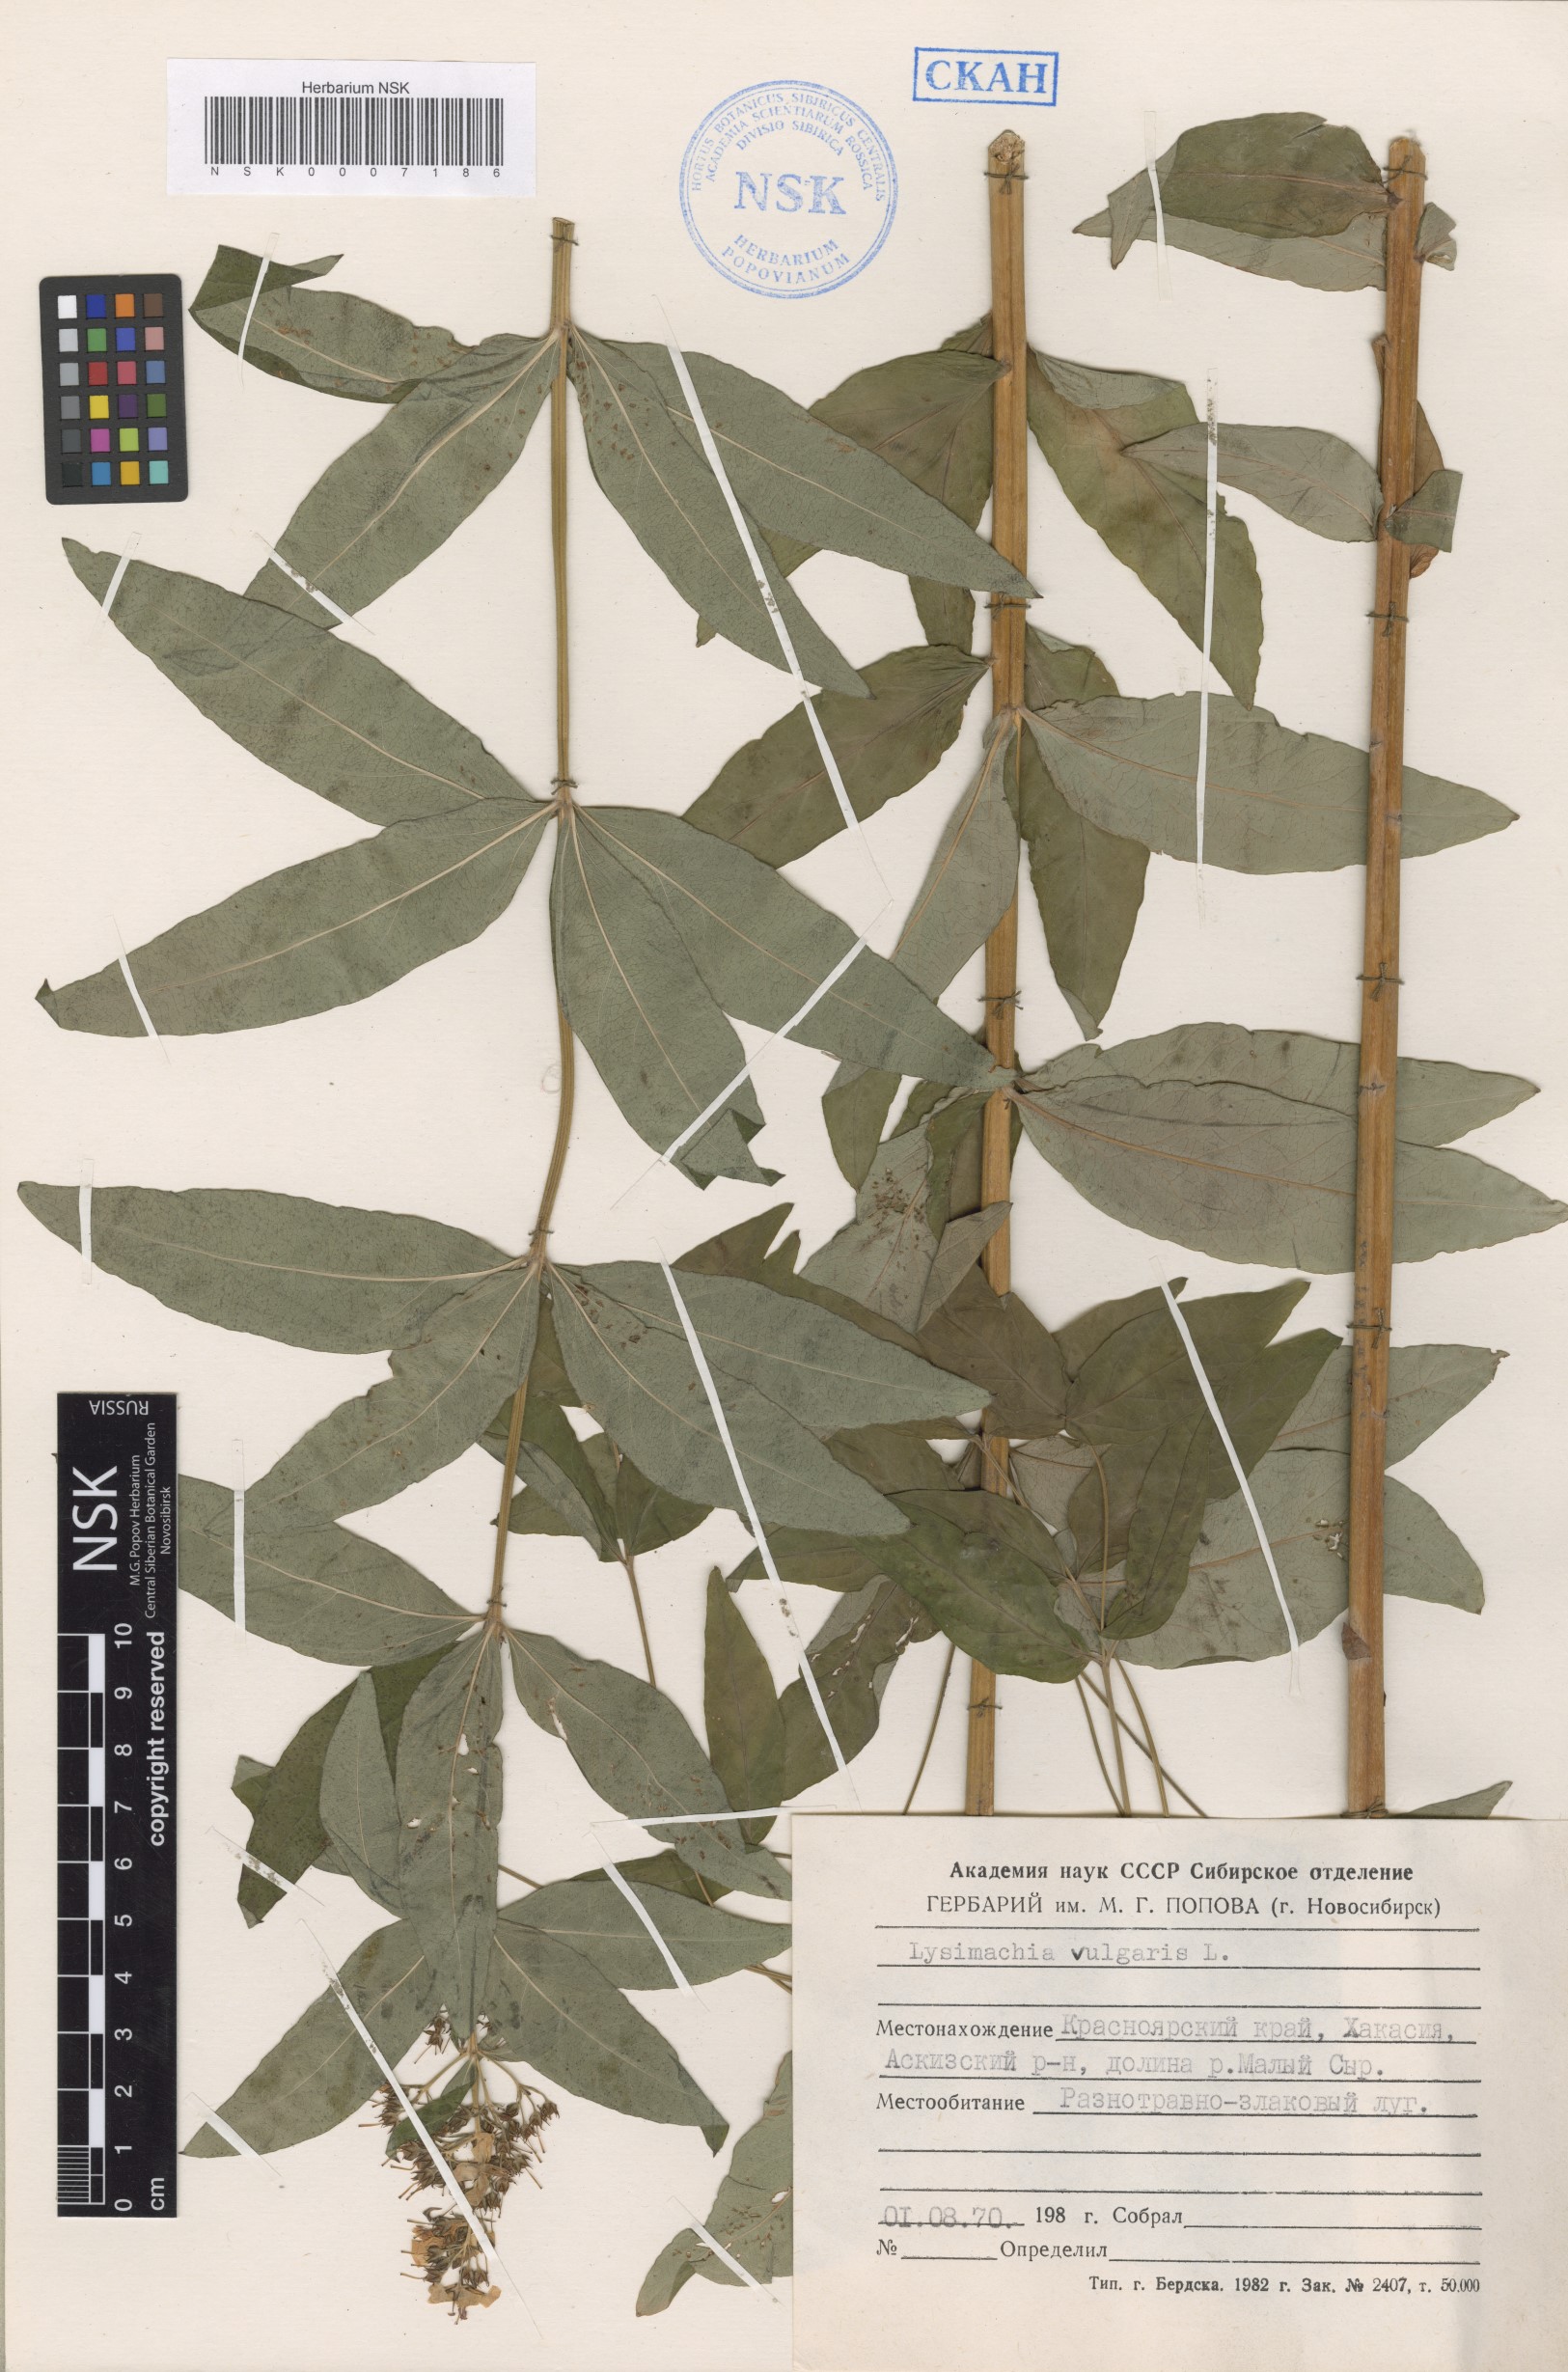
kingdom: Plantae
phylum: Tracheophyta
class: Magnoliopsida
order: Ericales
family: Primulaceae
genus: Lysimachia
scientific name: Lysimachia vulgaris
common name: Yellow loosestrife
